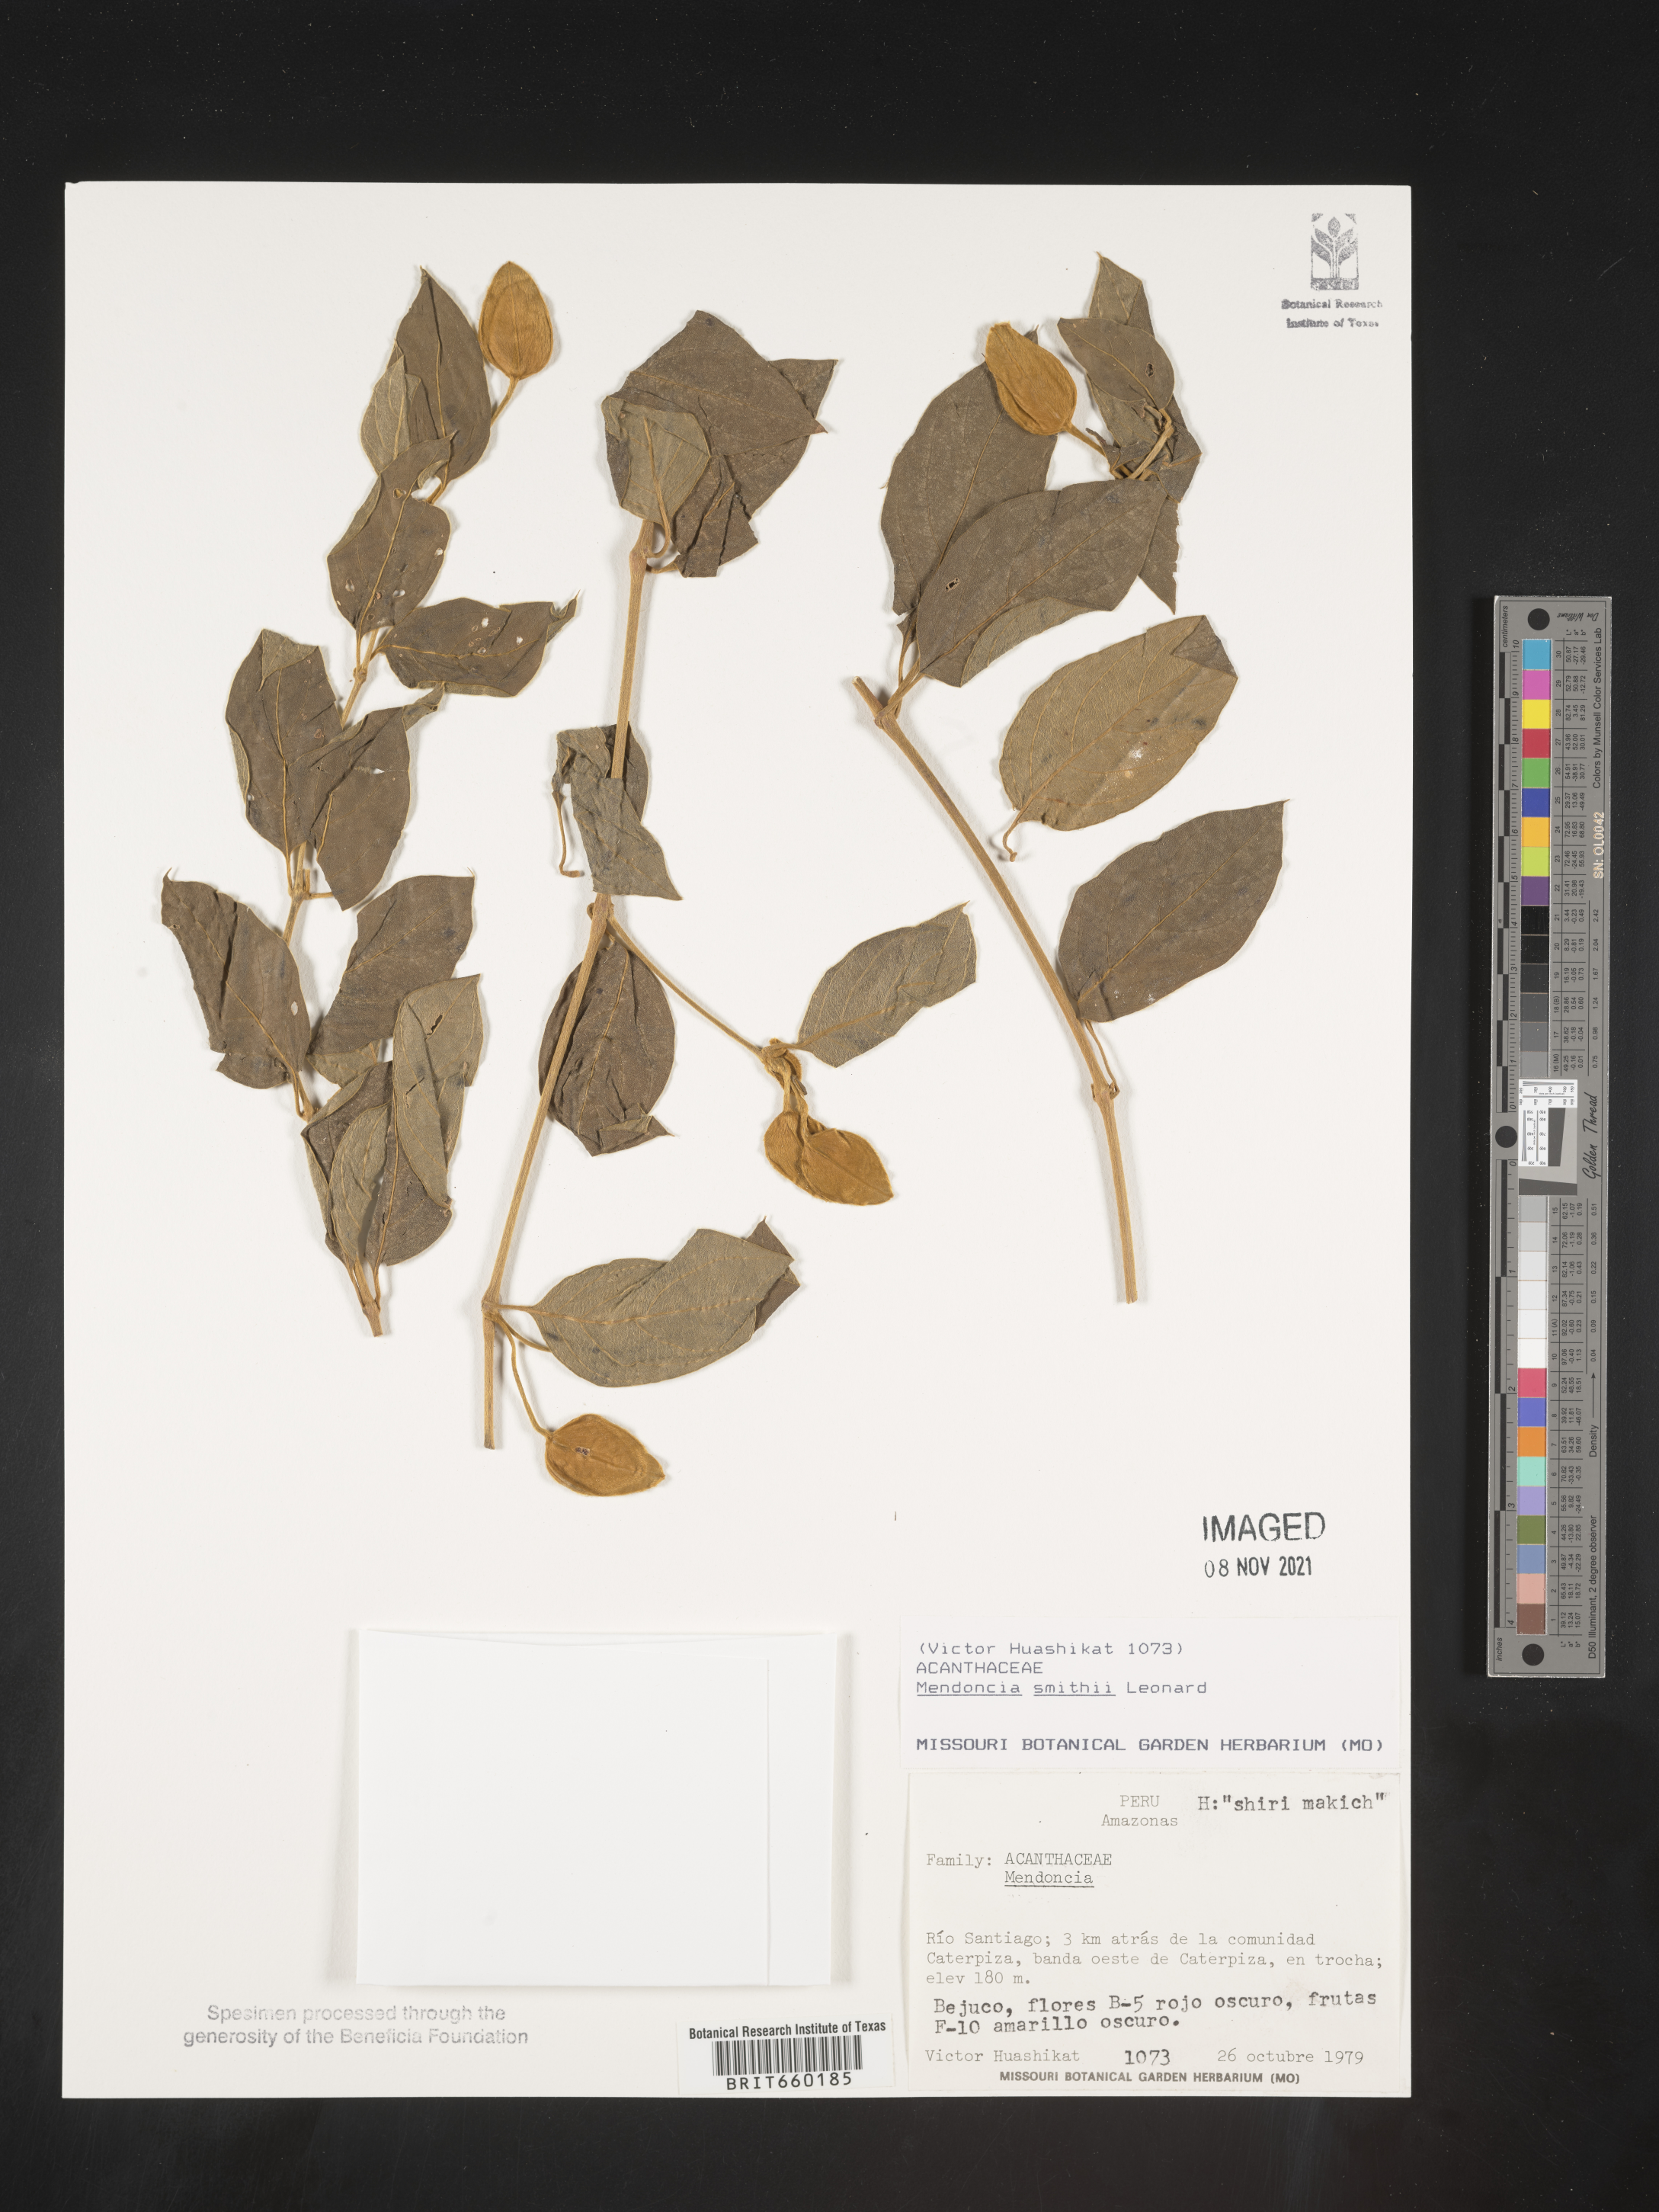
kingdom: Plantae
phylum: Tracheophyta
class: Magnoliopsida
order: Lamiales
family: Acanthaceae
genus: Mendoncia
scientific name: Mendoncia
